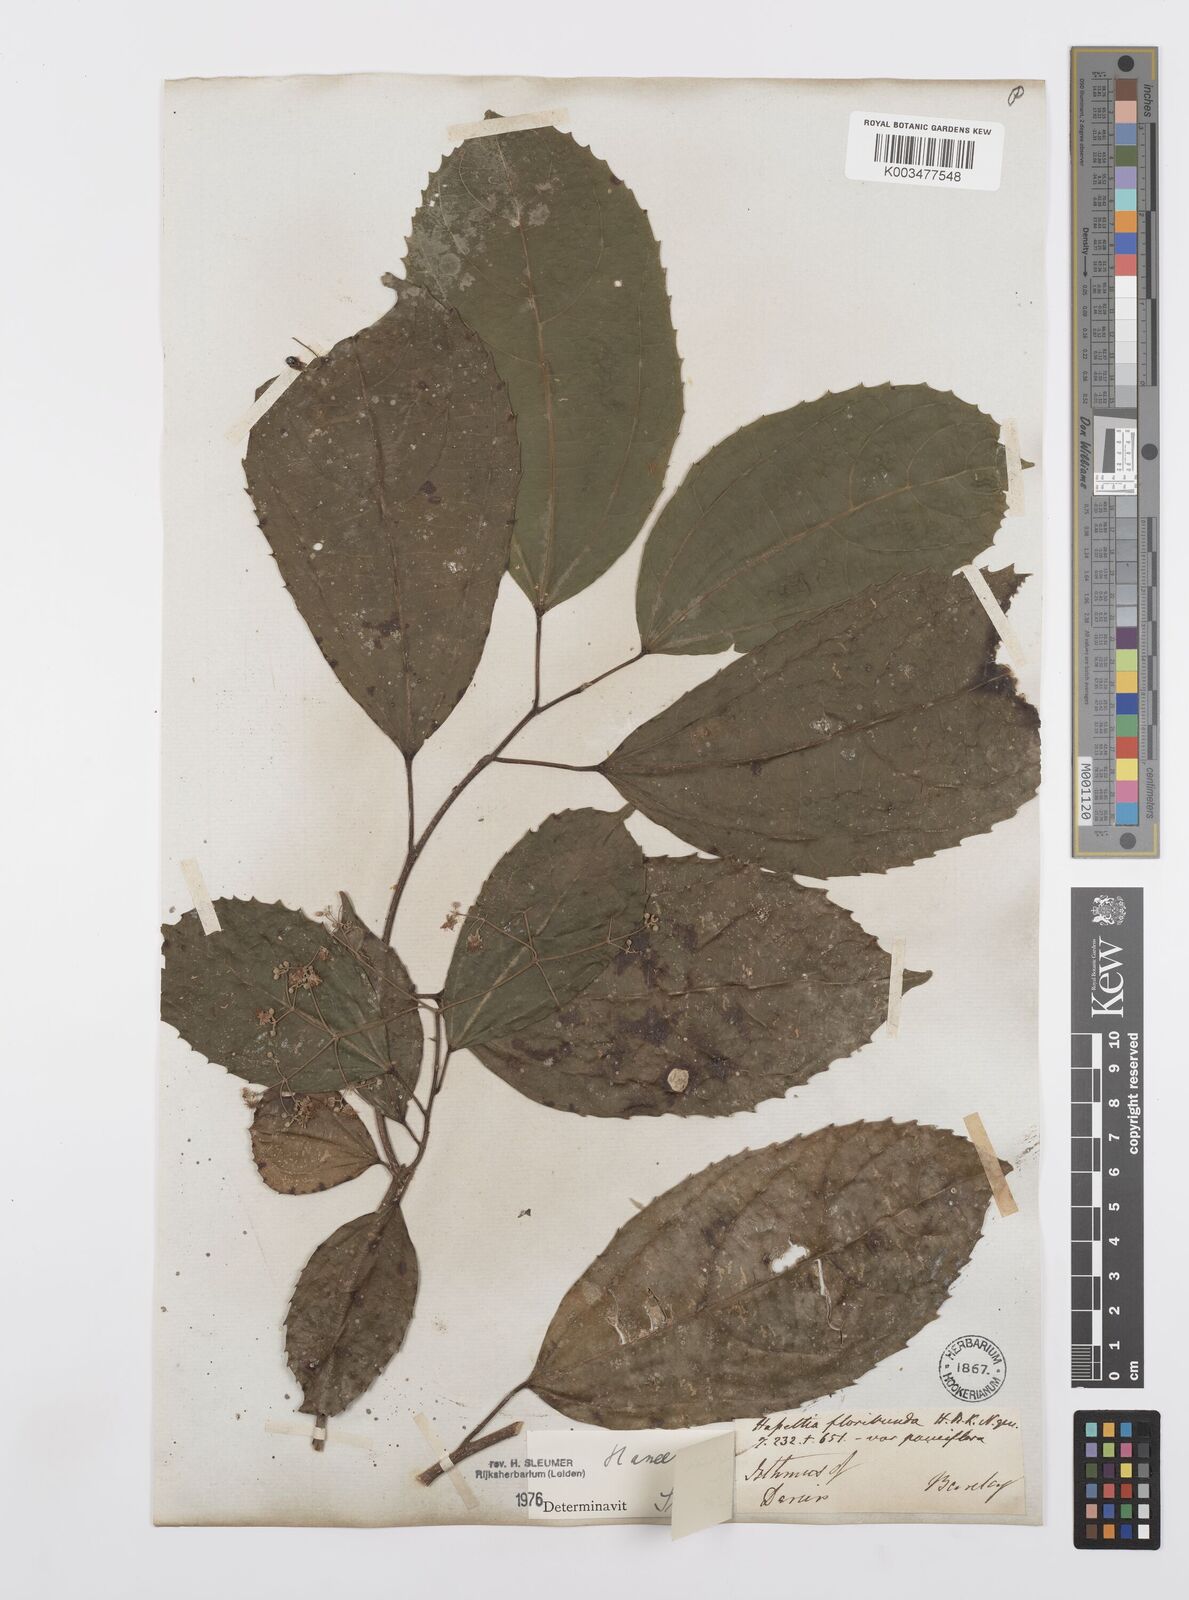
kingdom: Plantae
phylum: Tracheophyta
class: Magnoliopsida
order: Malpighiales
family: Salicaceae
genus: Hasseltia
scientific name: Hasseltia floribunda
